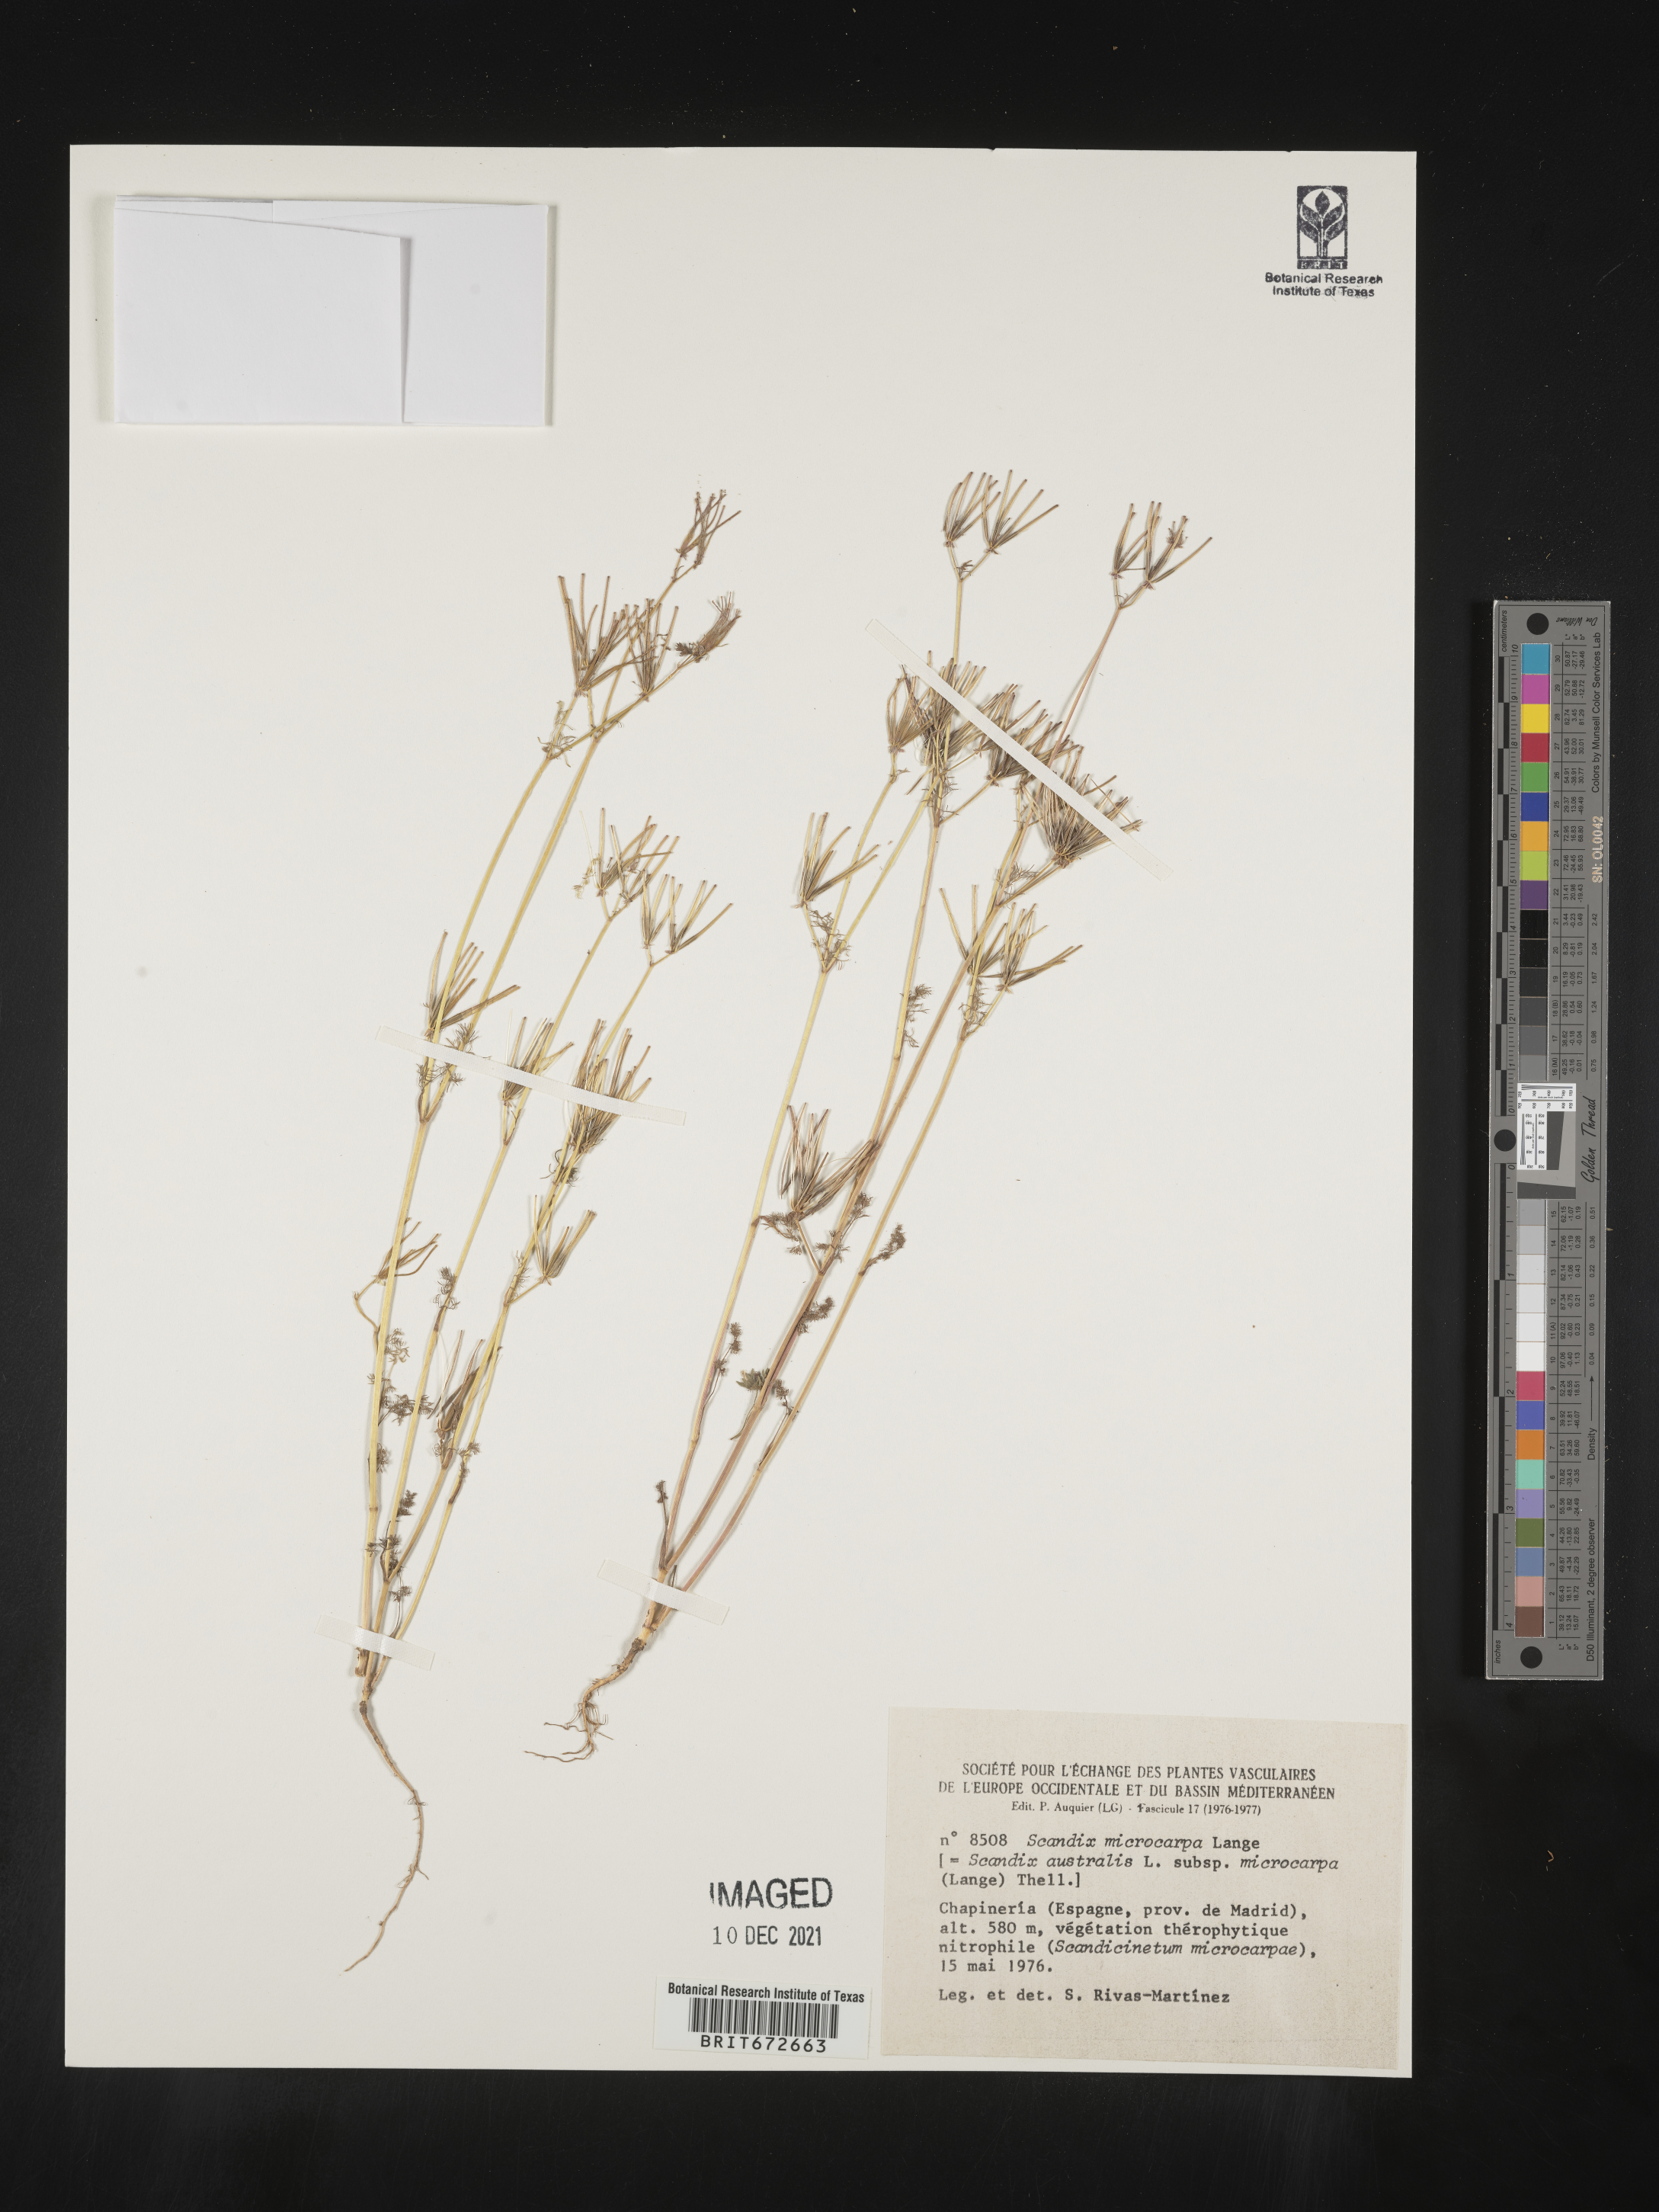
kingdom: Plantae
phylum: Tracheophyta
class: Magnoliopsida
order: Apiales
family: Apiaceae
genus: Scandix
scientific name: Scandix
